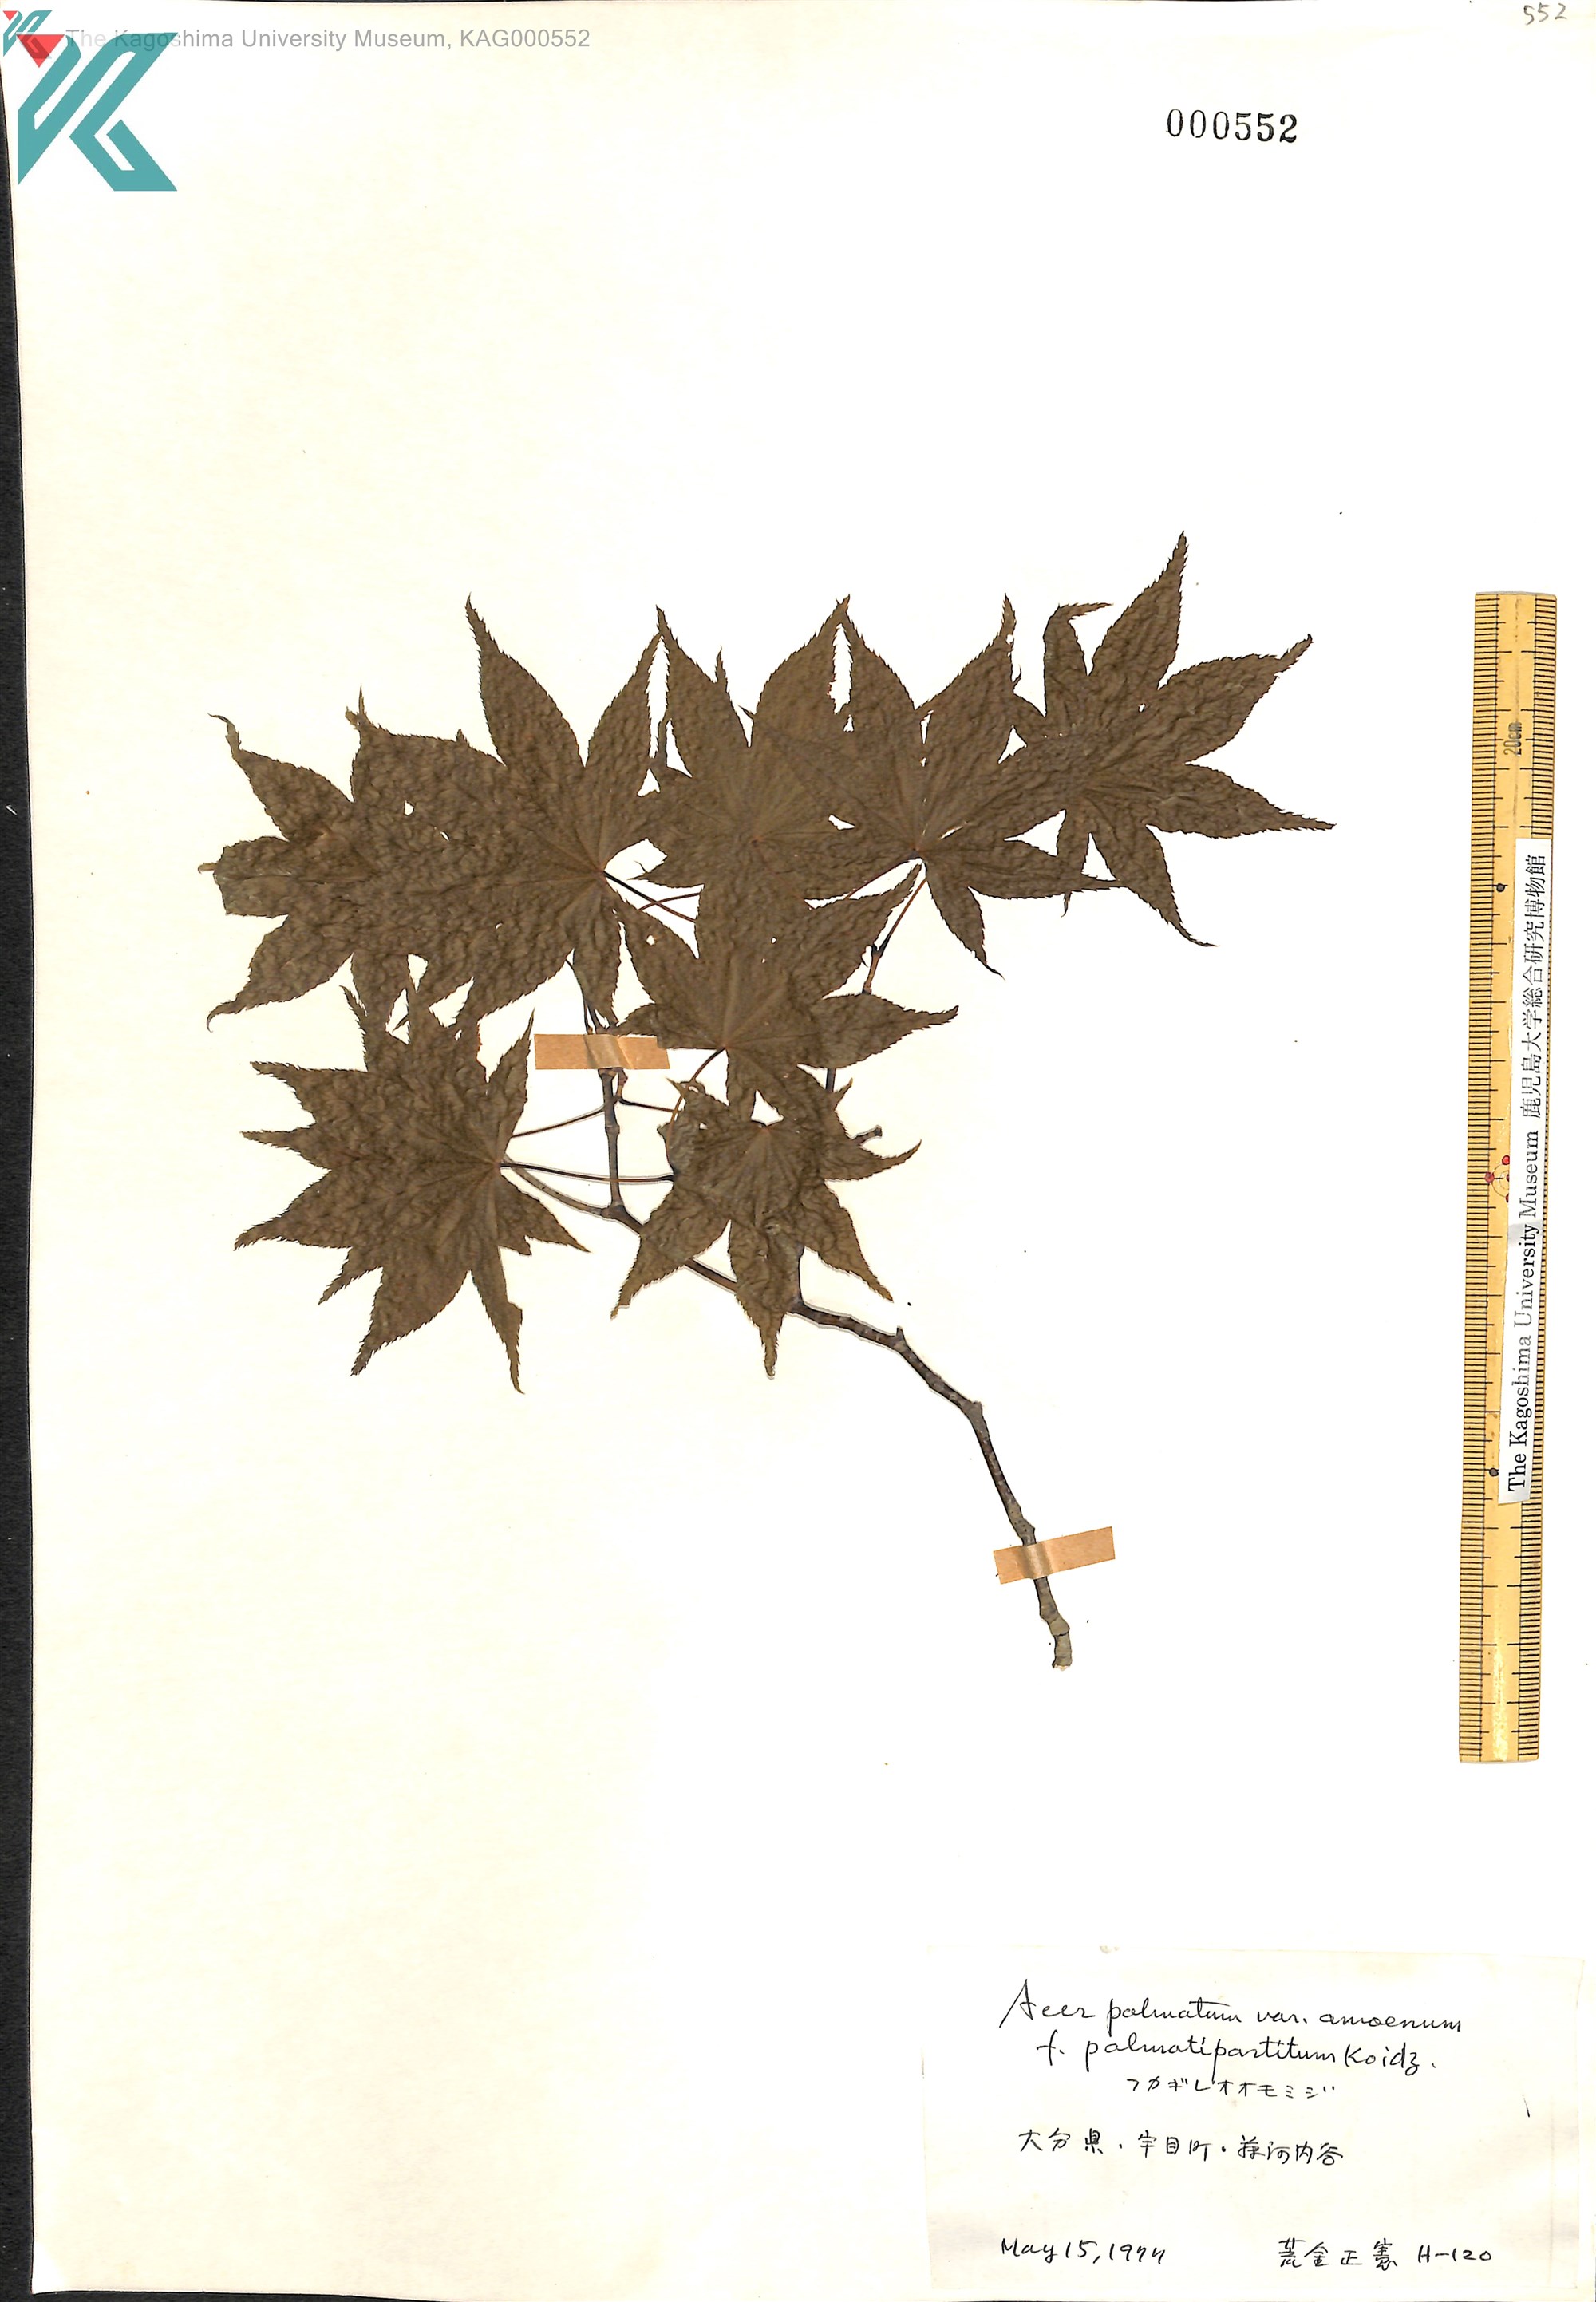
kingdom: Plantae
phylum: Tracheophyta
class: Magnoliopsida
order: Sapindales
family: Sapindaceae
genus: Acer
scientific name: Acer palmatum
